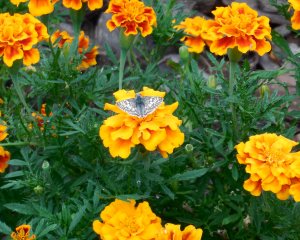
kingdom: Animalia
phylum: Arthropoda
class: Insecta
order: Lepidoptera
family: Hesperiidae
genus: Pyrgus
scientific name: Pyrgus communis
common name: Common Checkered-Skipper
